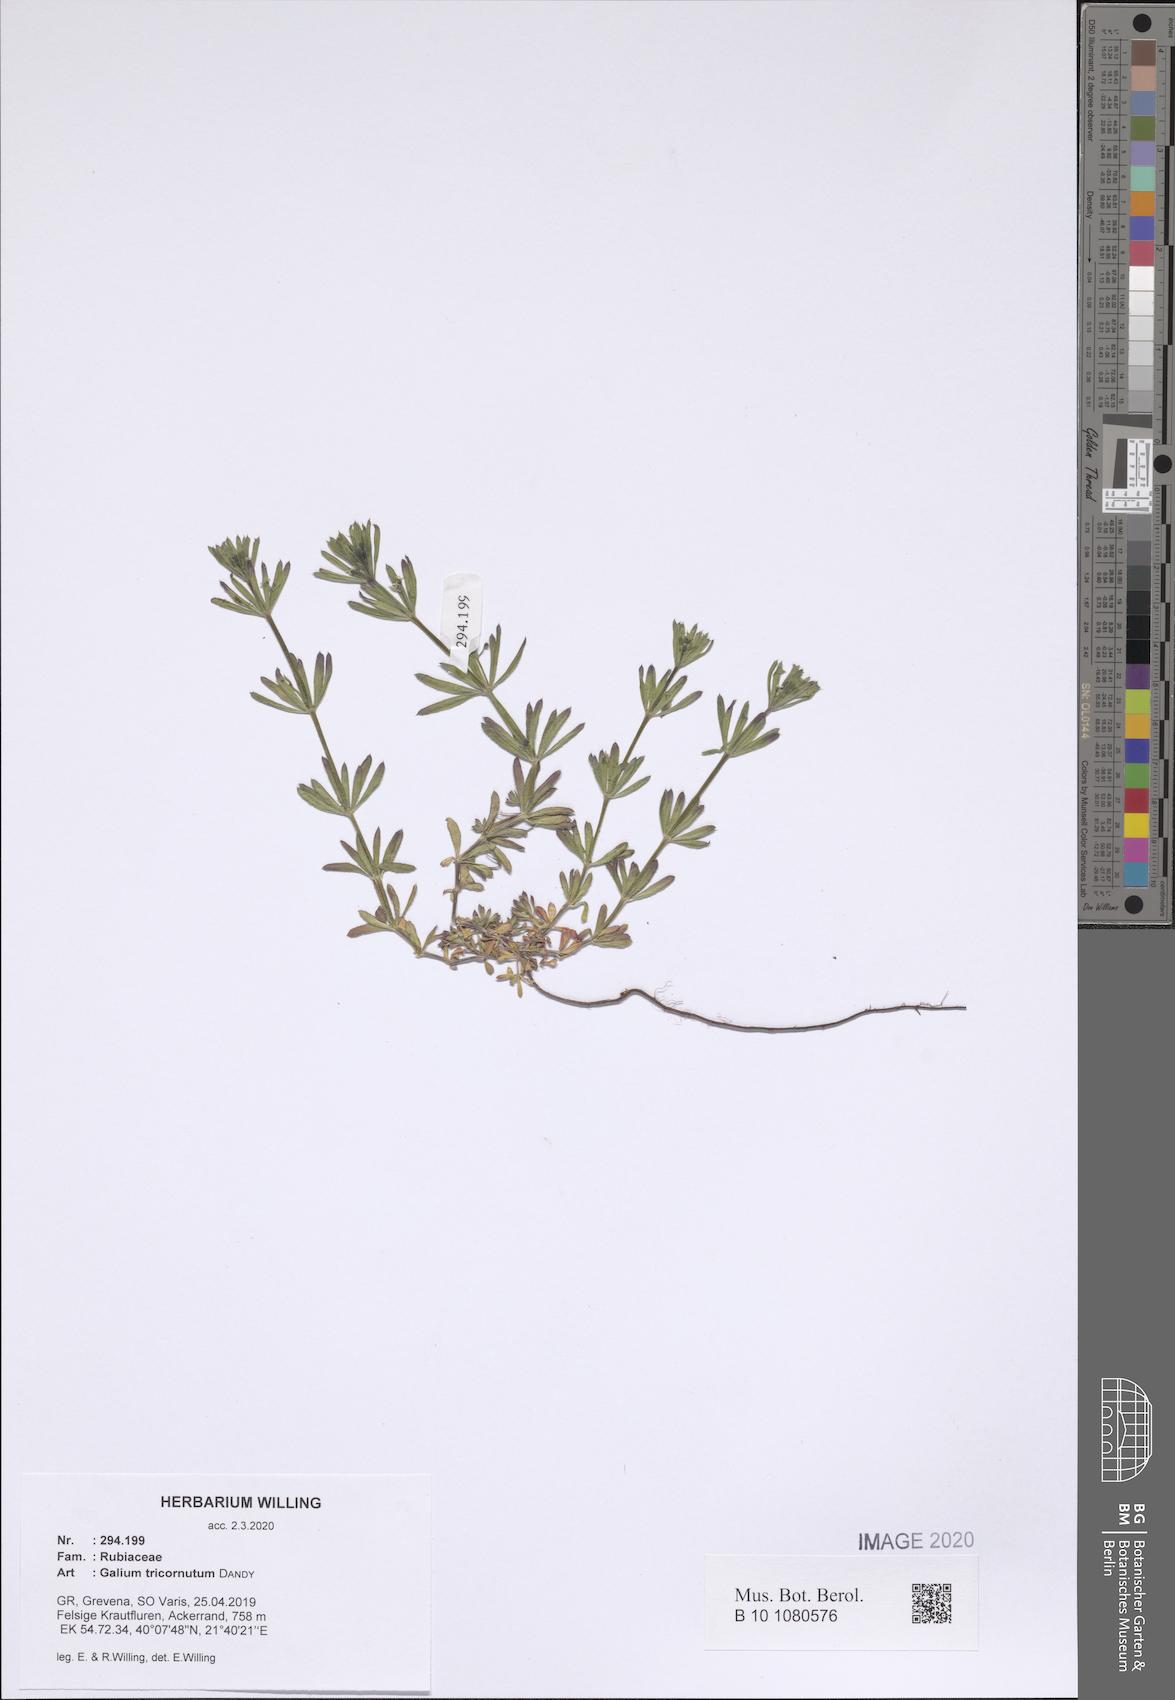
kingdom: Plantae
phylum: Tracheophyta
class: Magnoliopsida
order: Gentianales
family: Rubiaceae
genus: Galium
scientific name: Galium tricornutum
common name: Corn cleavers
